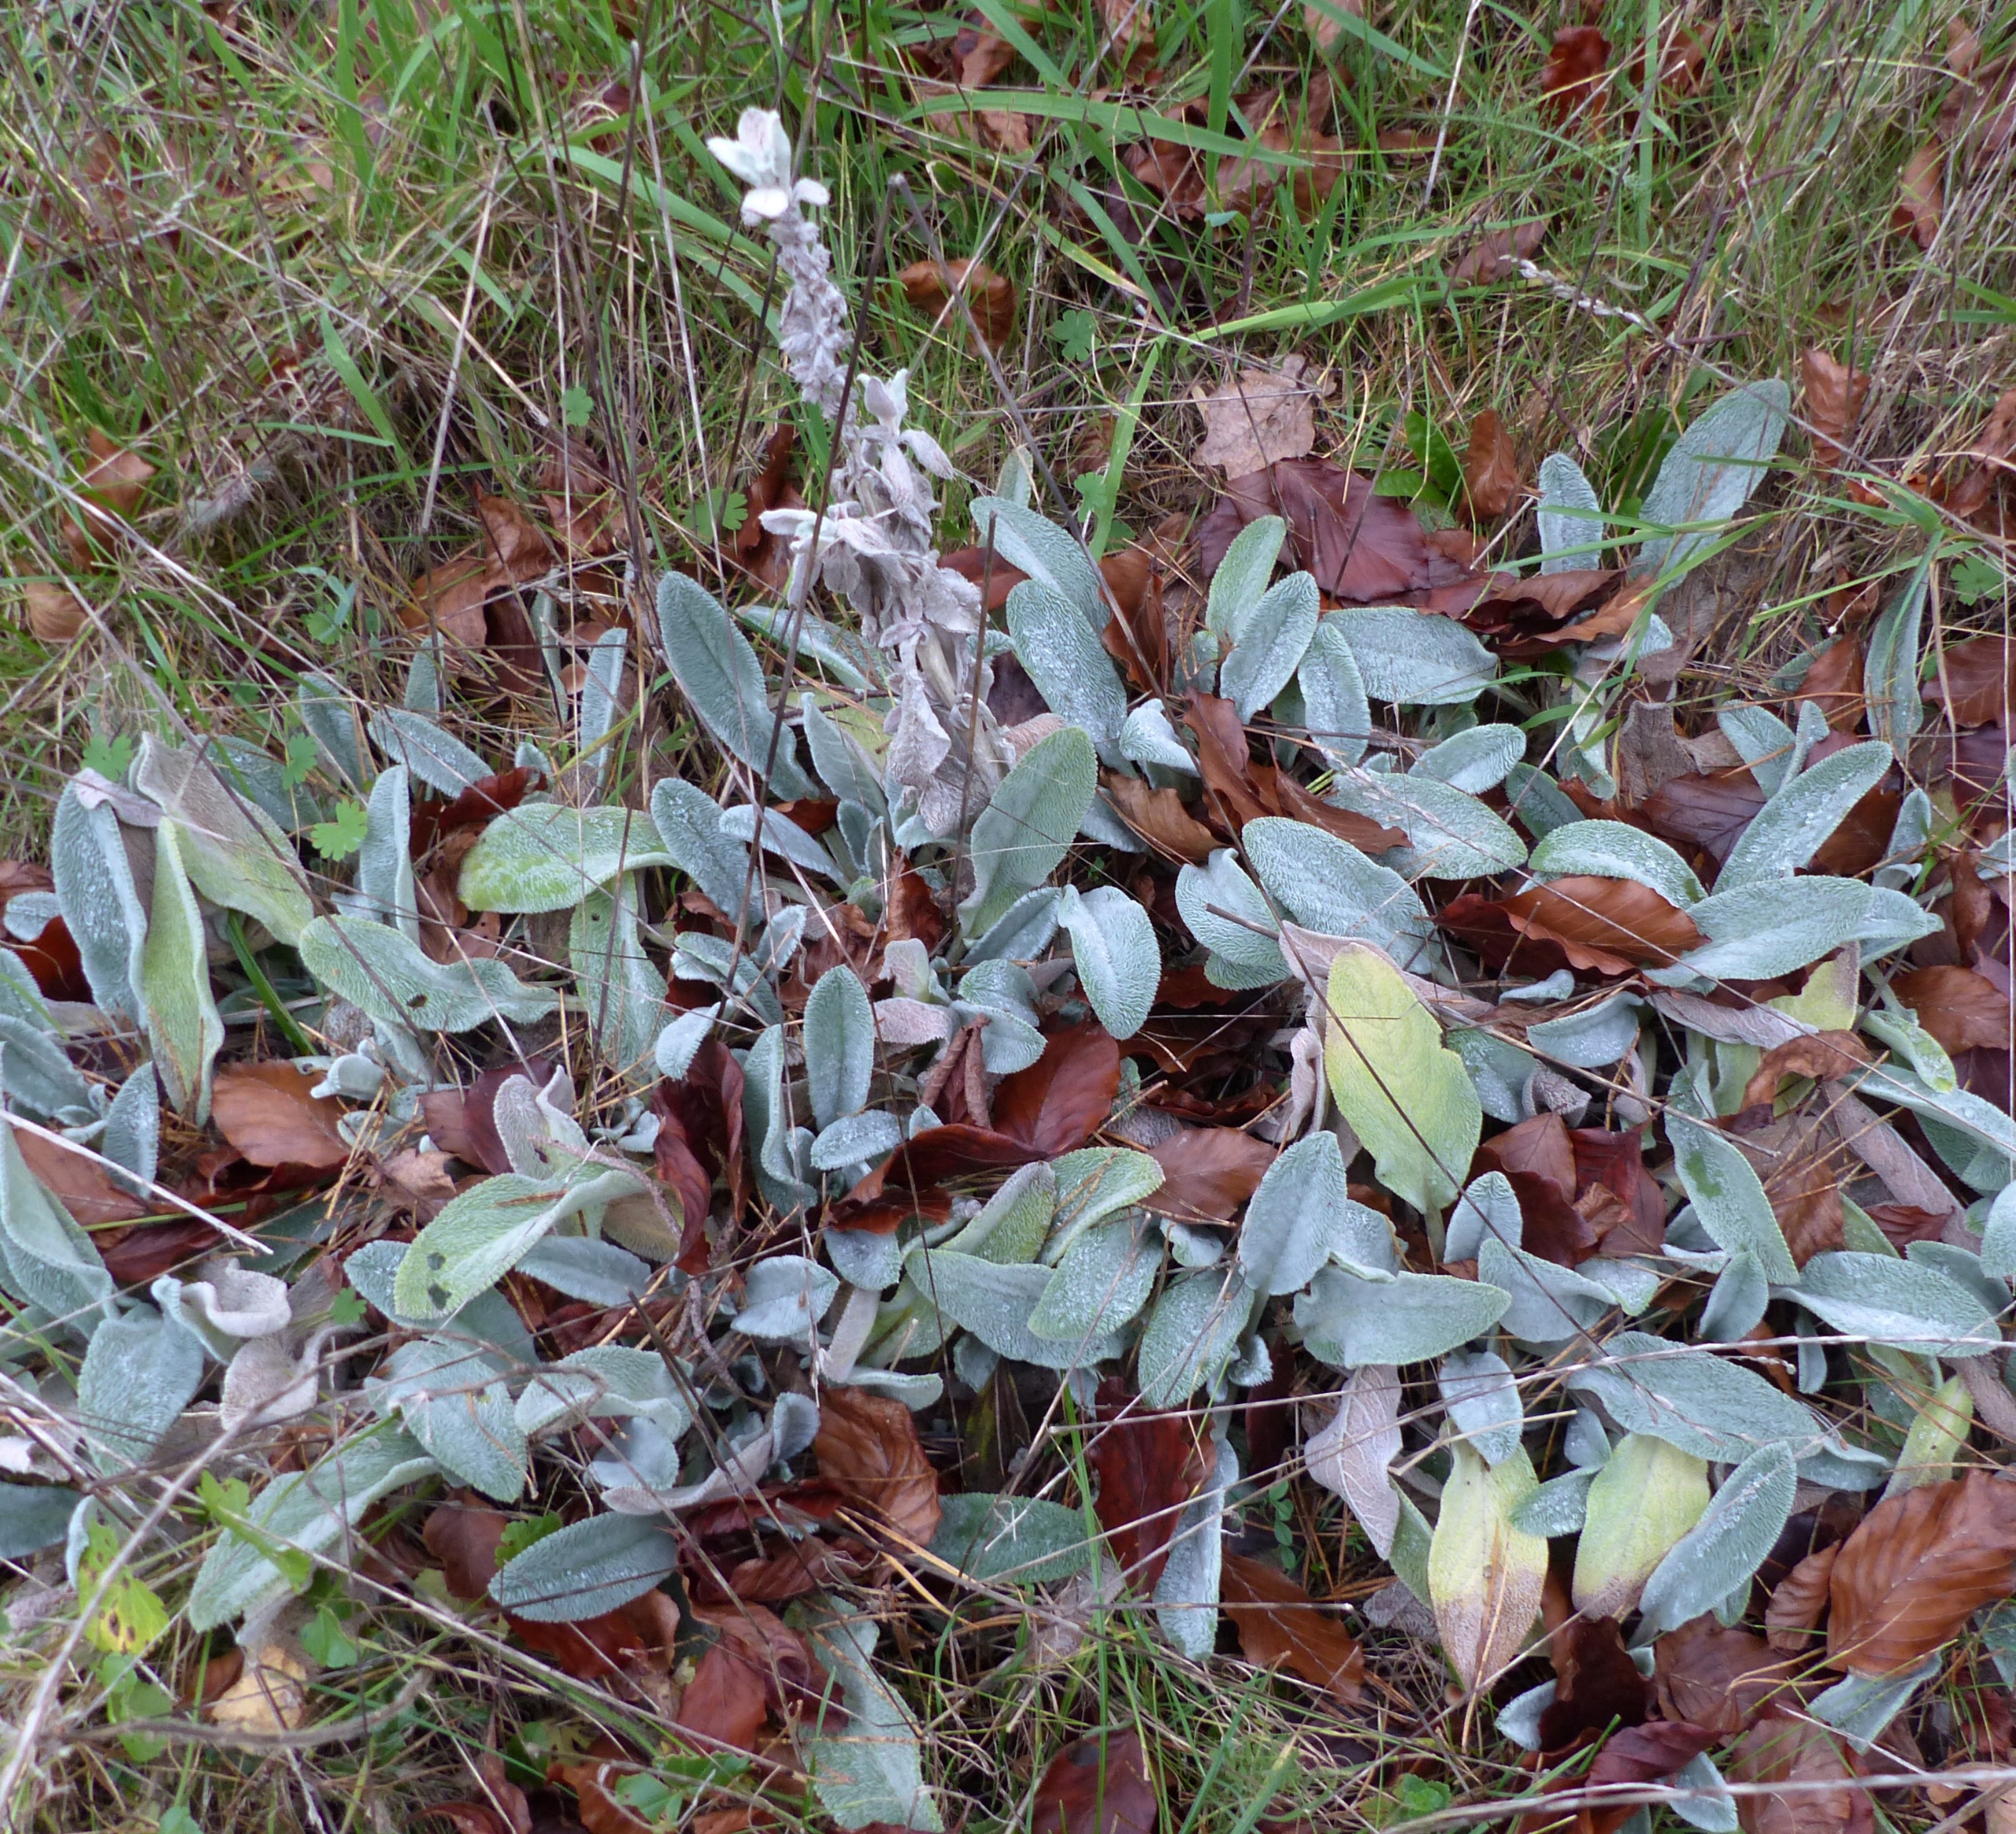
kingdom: Plantae
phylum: Tracheophyta
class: Magnoliopsida
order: Lamiales
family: Lamiaceae
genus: Stachys
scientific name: Stachys byzantina
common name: Lammeøre
